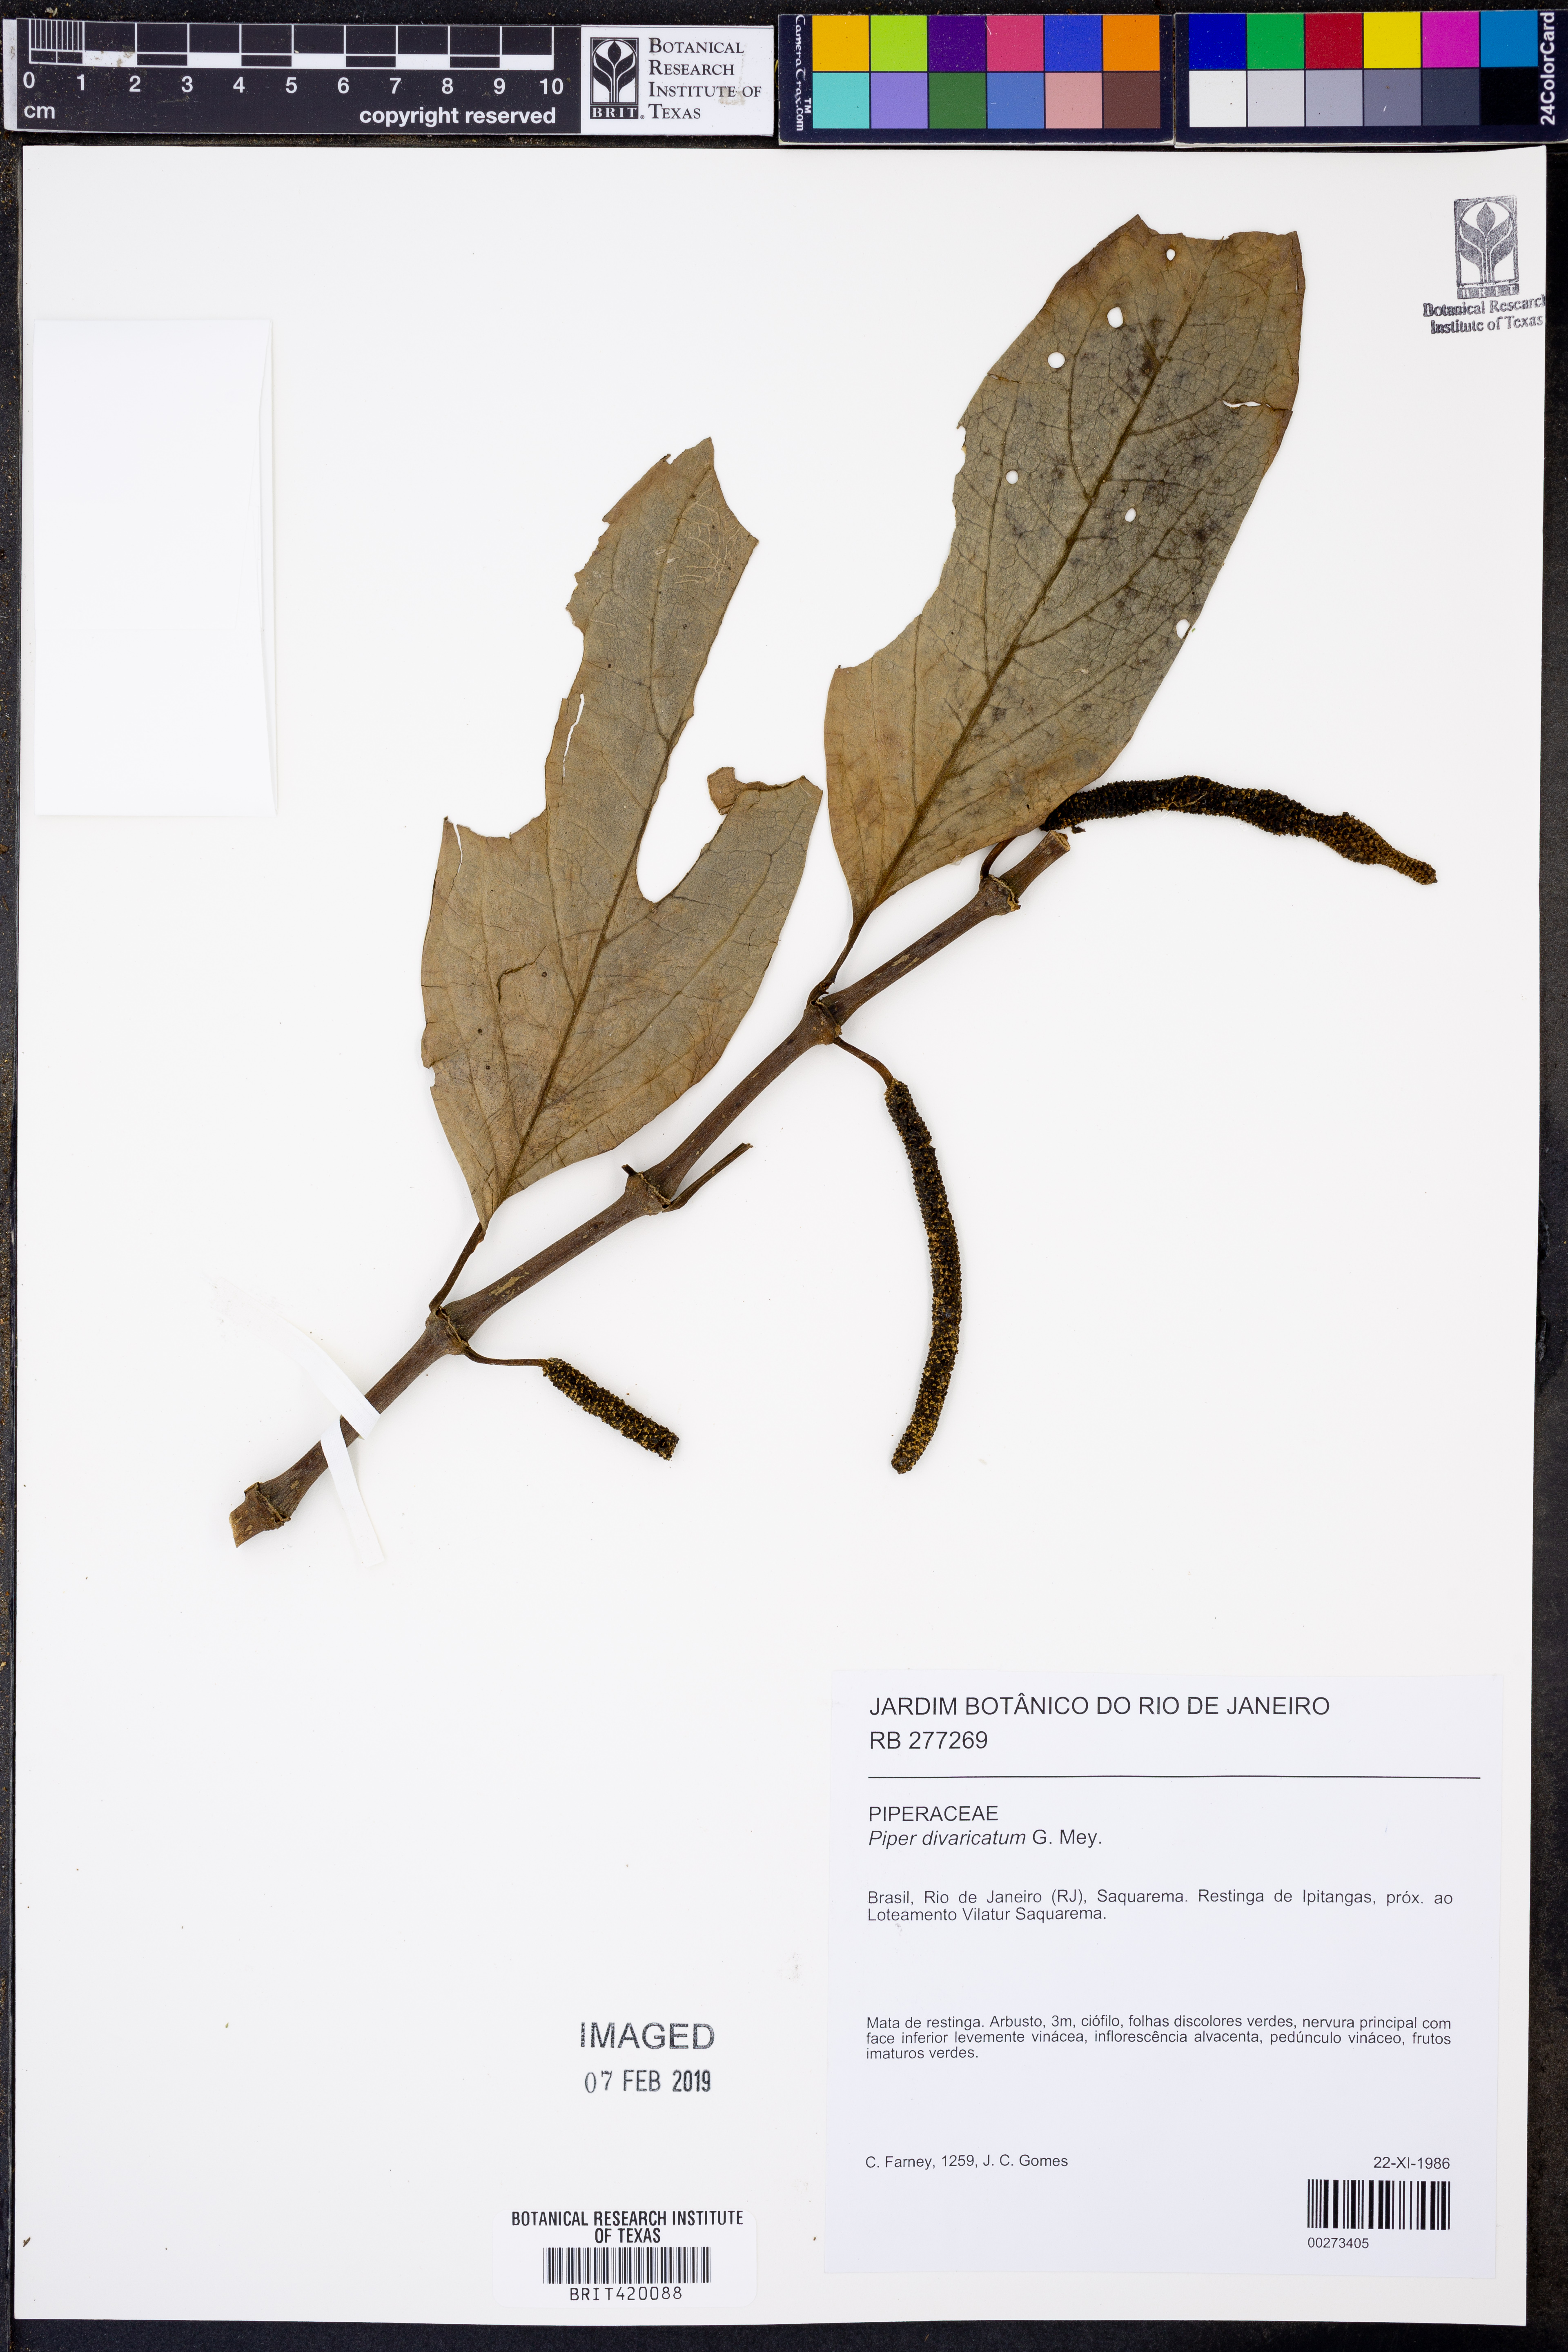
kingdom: Plantae
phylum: Tracheophyta
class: Magnoliopsida
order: Piperales
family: Piperaceae
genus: Piper
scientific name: Piper divaricatum
